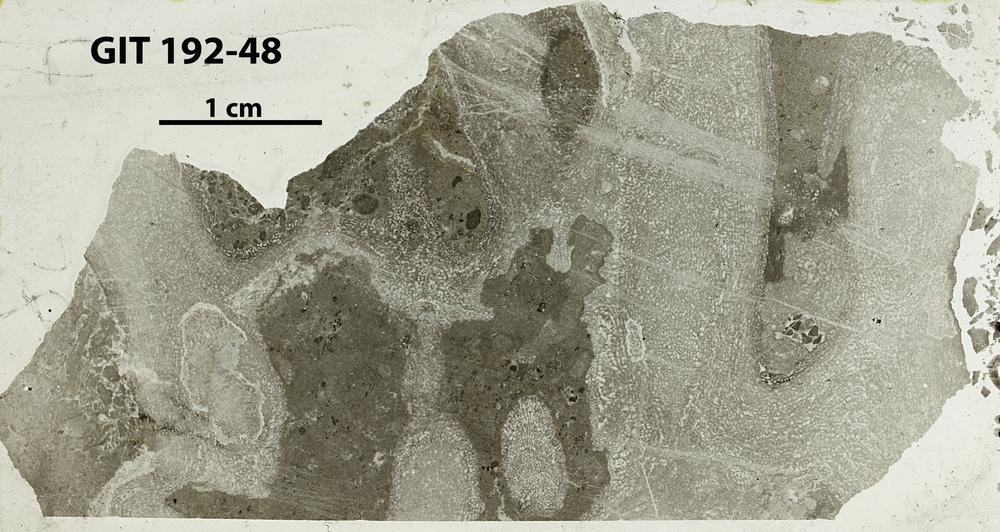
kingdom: Animalia
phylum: Porifera
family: Pseudolabechiidae
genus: Vikingia
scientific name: Vikingia
